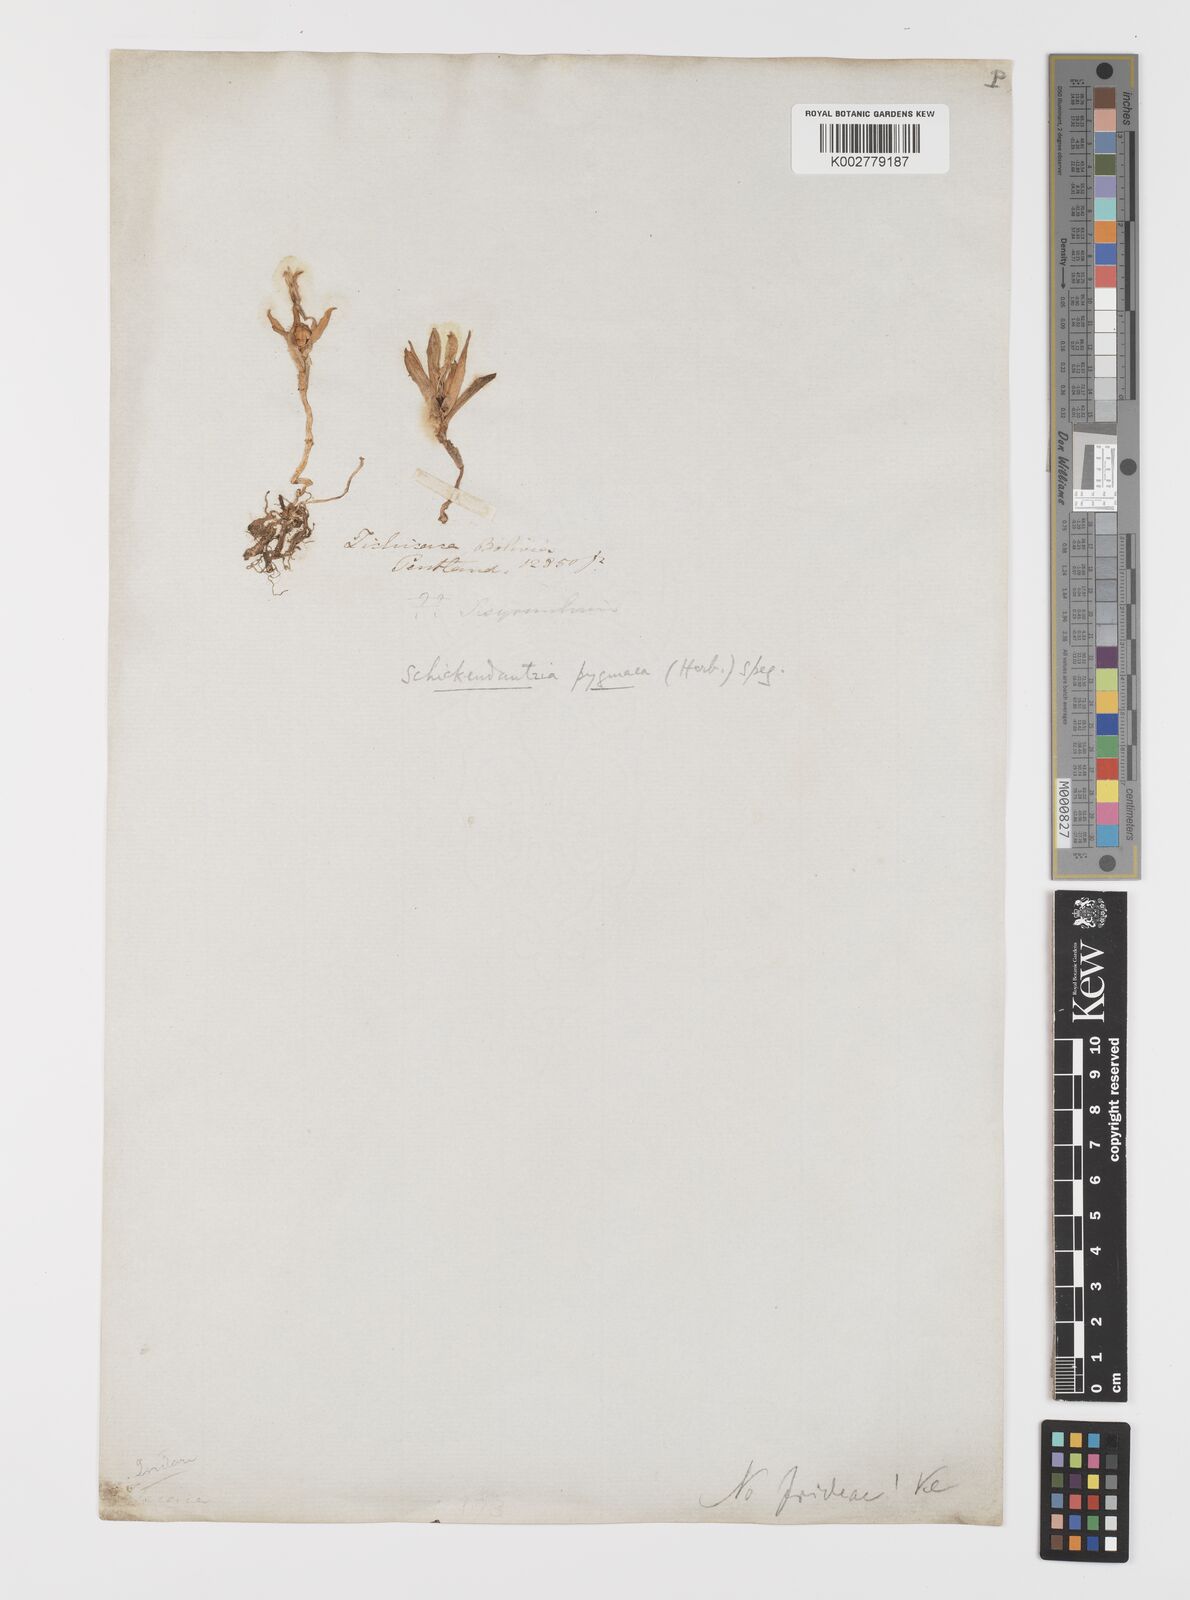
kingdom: Plantae
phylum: Tracheophyta
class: Liliopsida
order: Liliales
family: Alstroemeriaceae
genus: Alstroemeria
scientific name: Alstroemeria pygmaea
